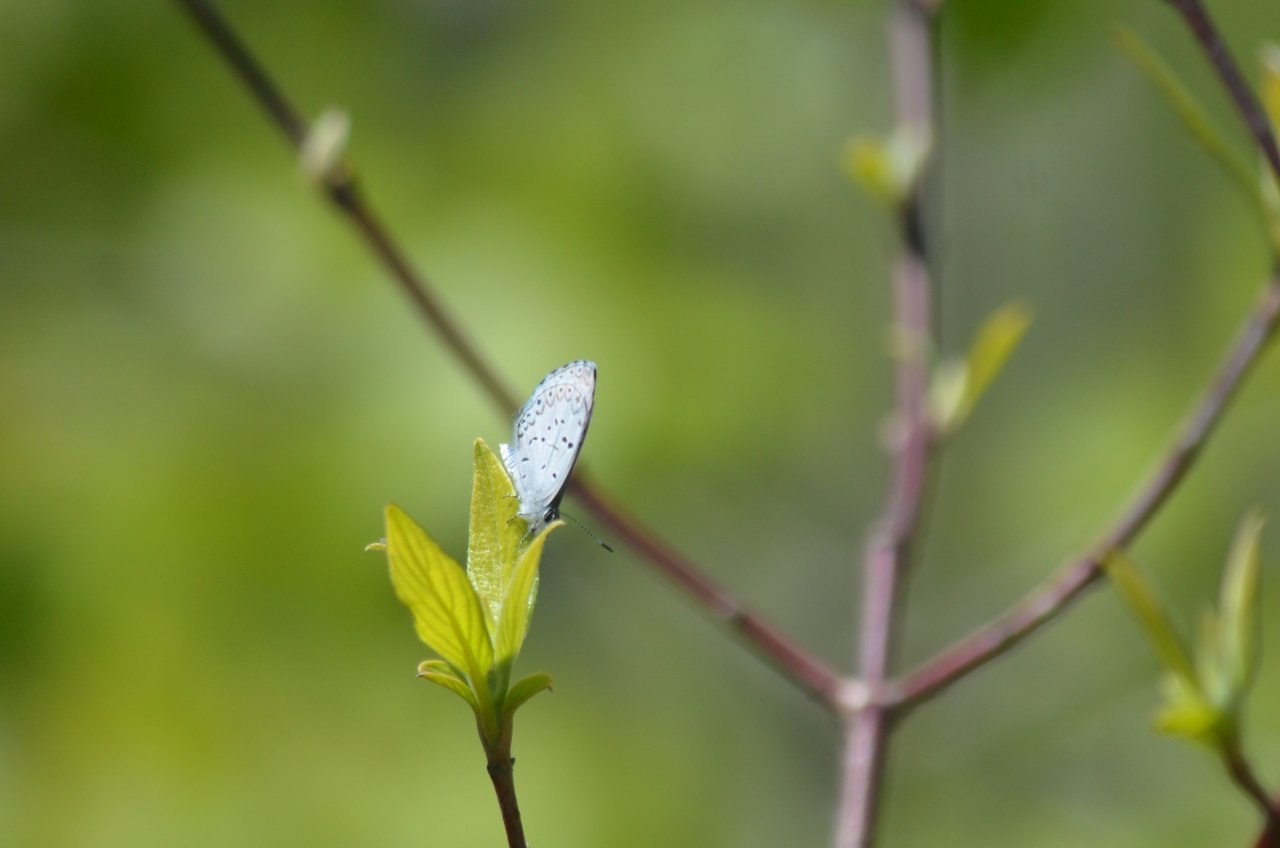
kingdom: Animalia
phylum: Arthropoda
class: Insecta
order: Lepidoptera
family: Lycaenidae
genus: Celastrina
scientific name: Celastrina lucia
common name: Northern Spring Azure
